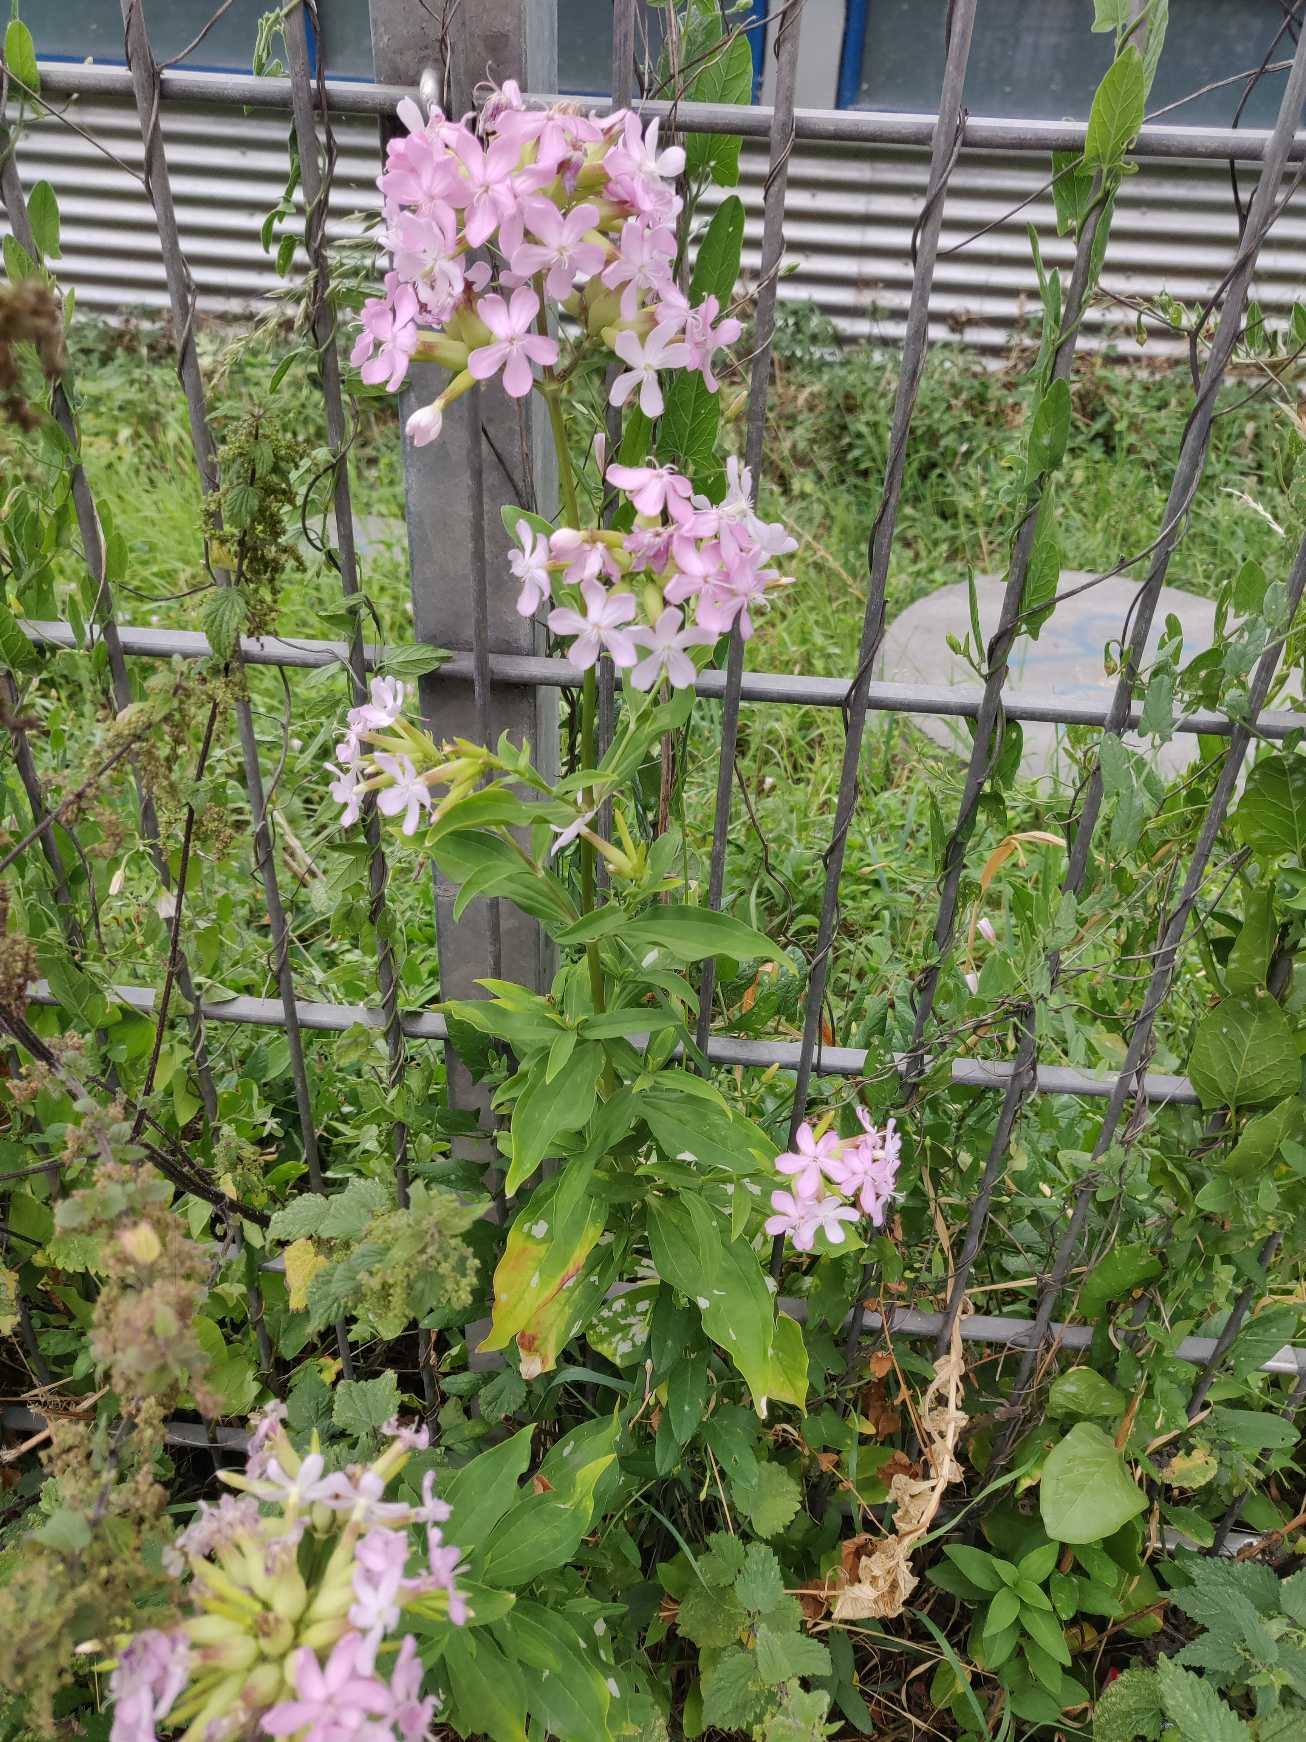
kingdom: Plantae
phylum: Tracheophyta
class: Magnoliopsida
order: Caryophyllales
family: Caryophyllaceae
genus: Saponaria
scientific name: Saponaria officinalis
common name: Sæbeurt
